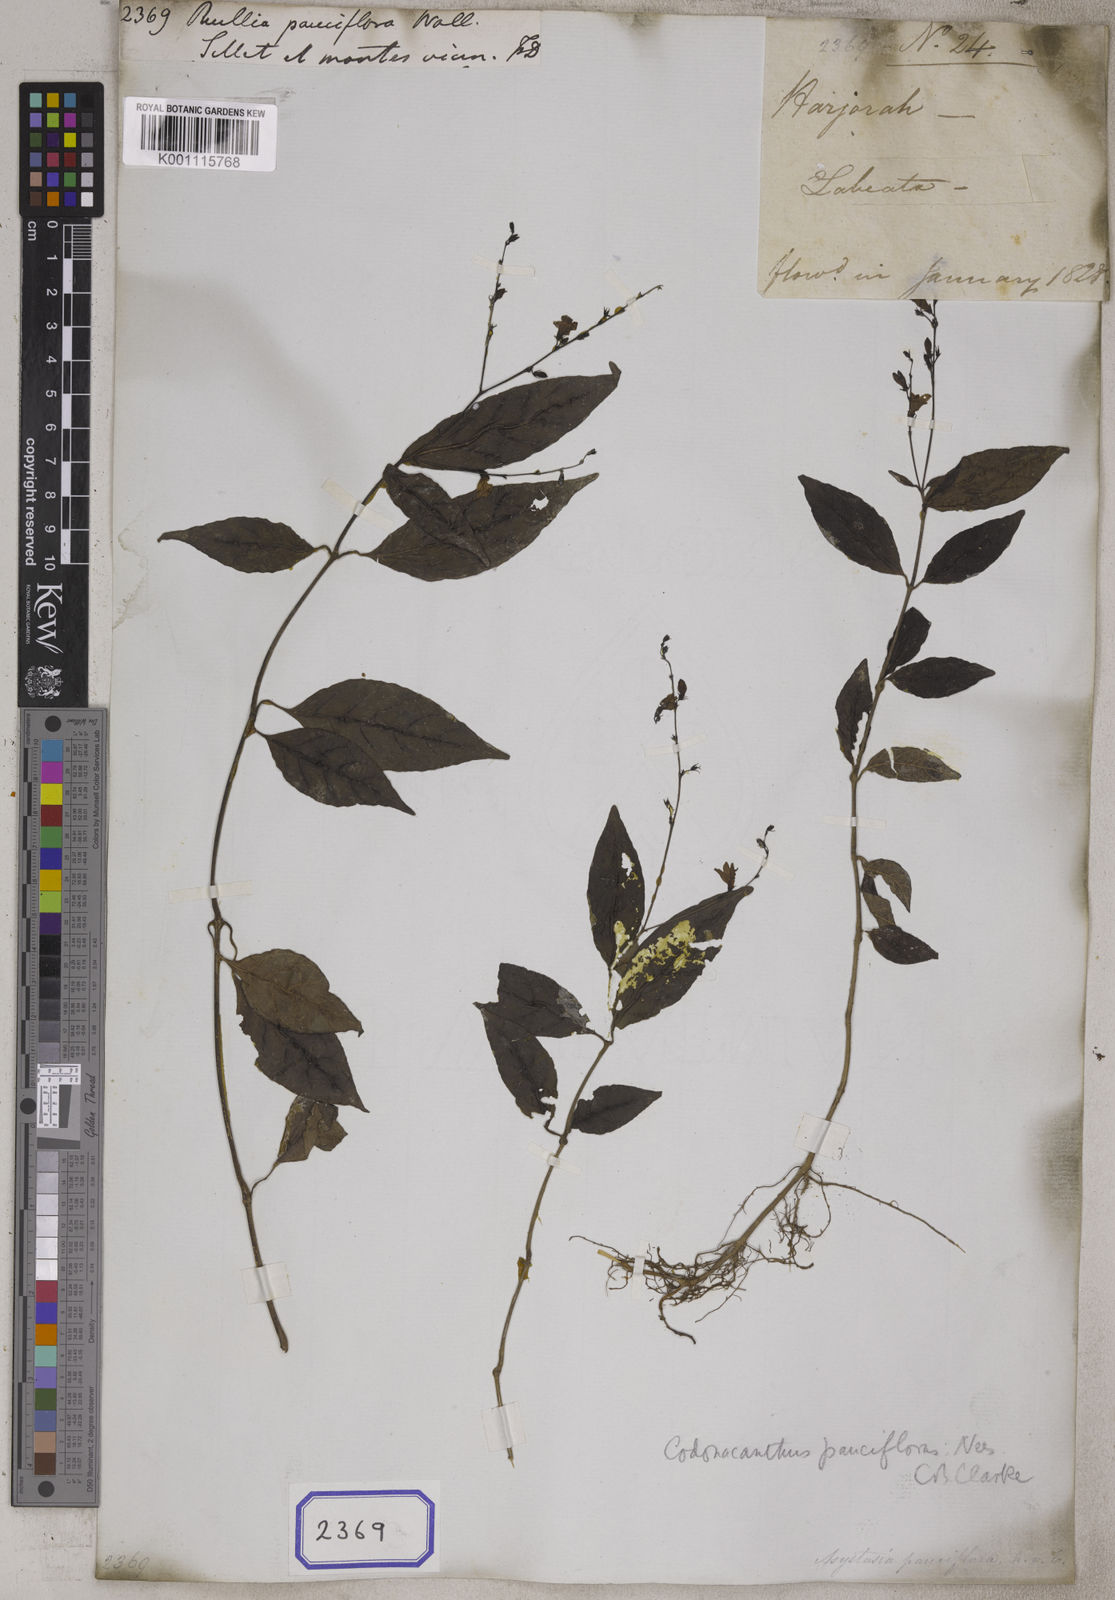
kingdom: Plantae
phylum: Tracheophyta
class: Magnoliopsida
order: Lamiales
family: Acanthaceae
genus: Codonacanthus
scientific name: Codonacanthus pauciflorus
